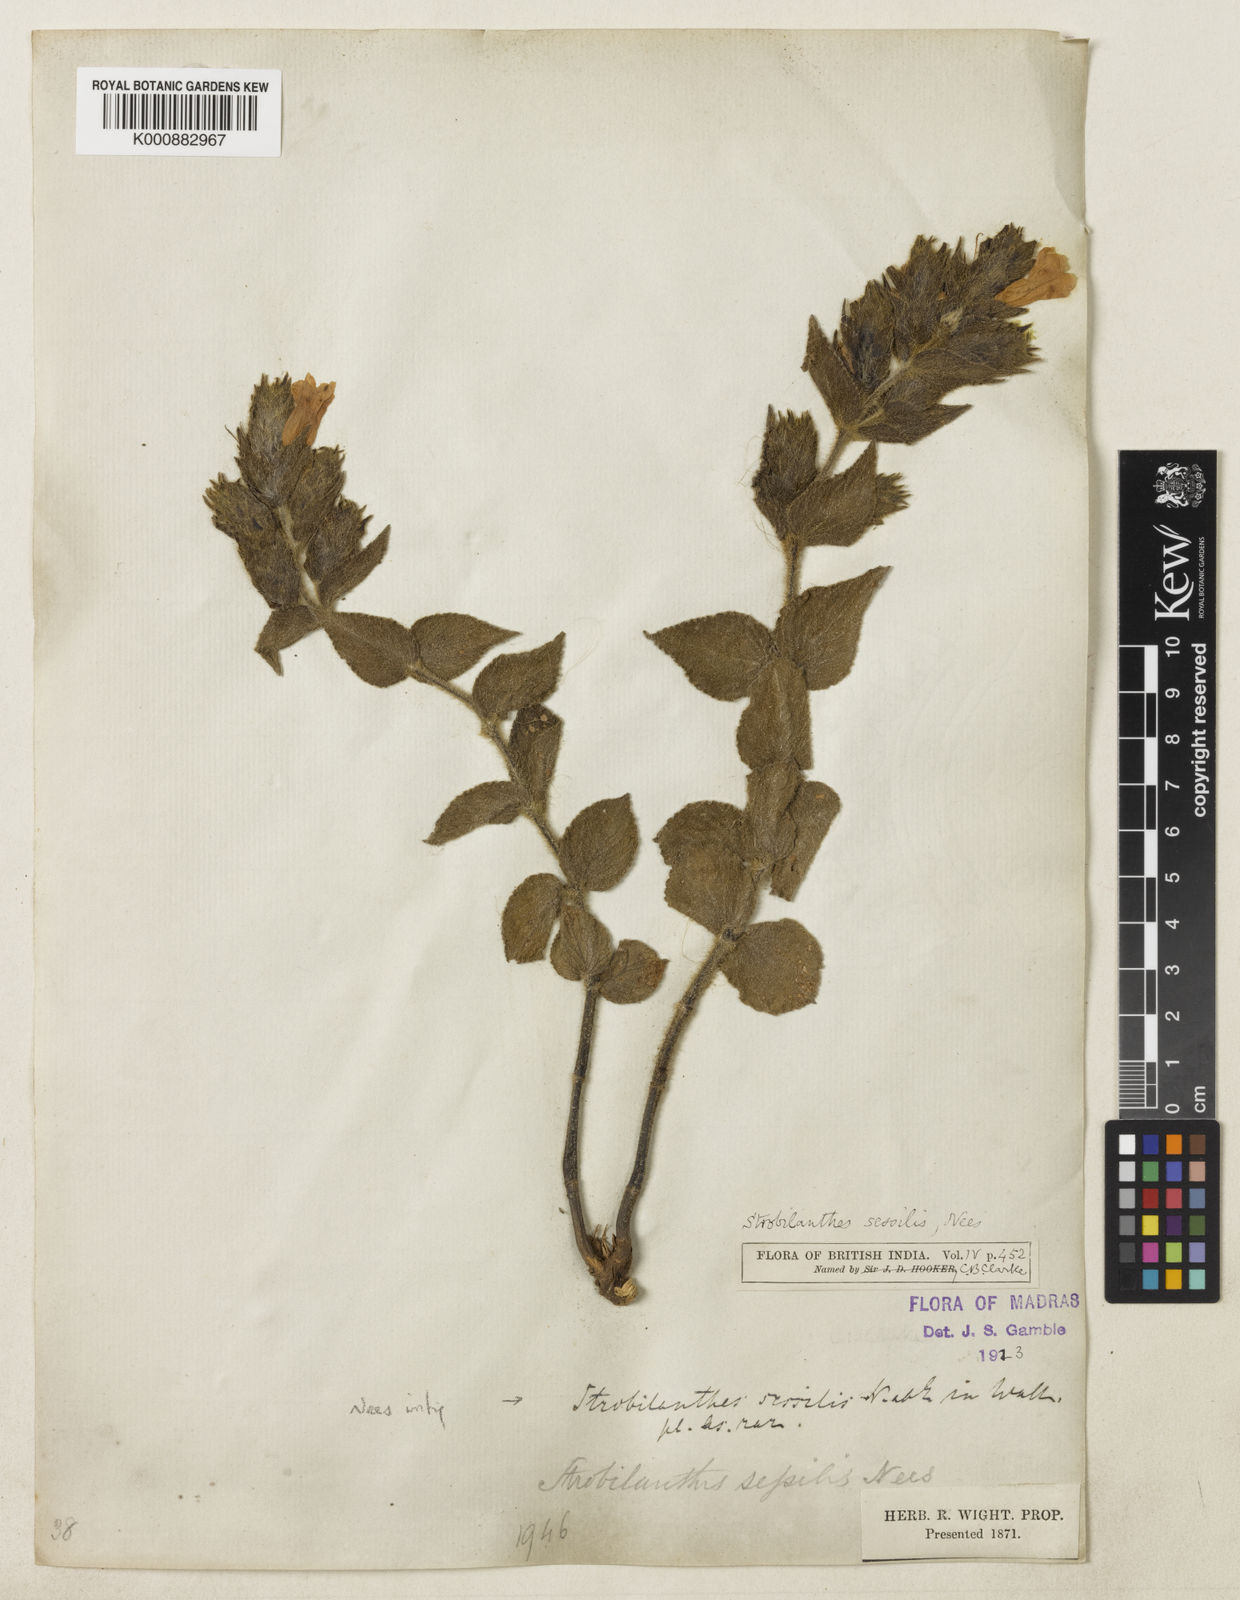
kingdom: Plantae
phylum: Tracheophyta
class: Magnoliopsida
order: Lamiales
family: Acanthaceae
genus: Strobilanthes
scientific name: Strobilanthes sessilis
